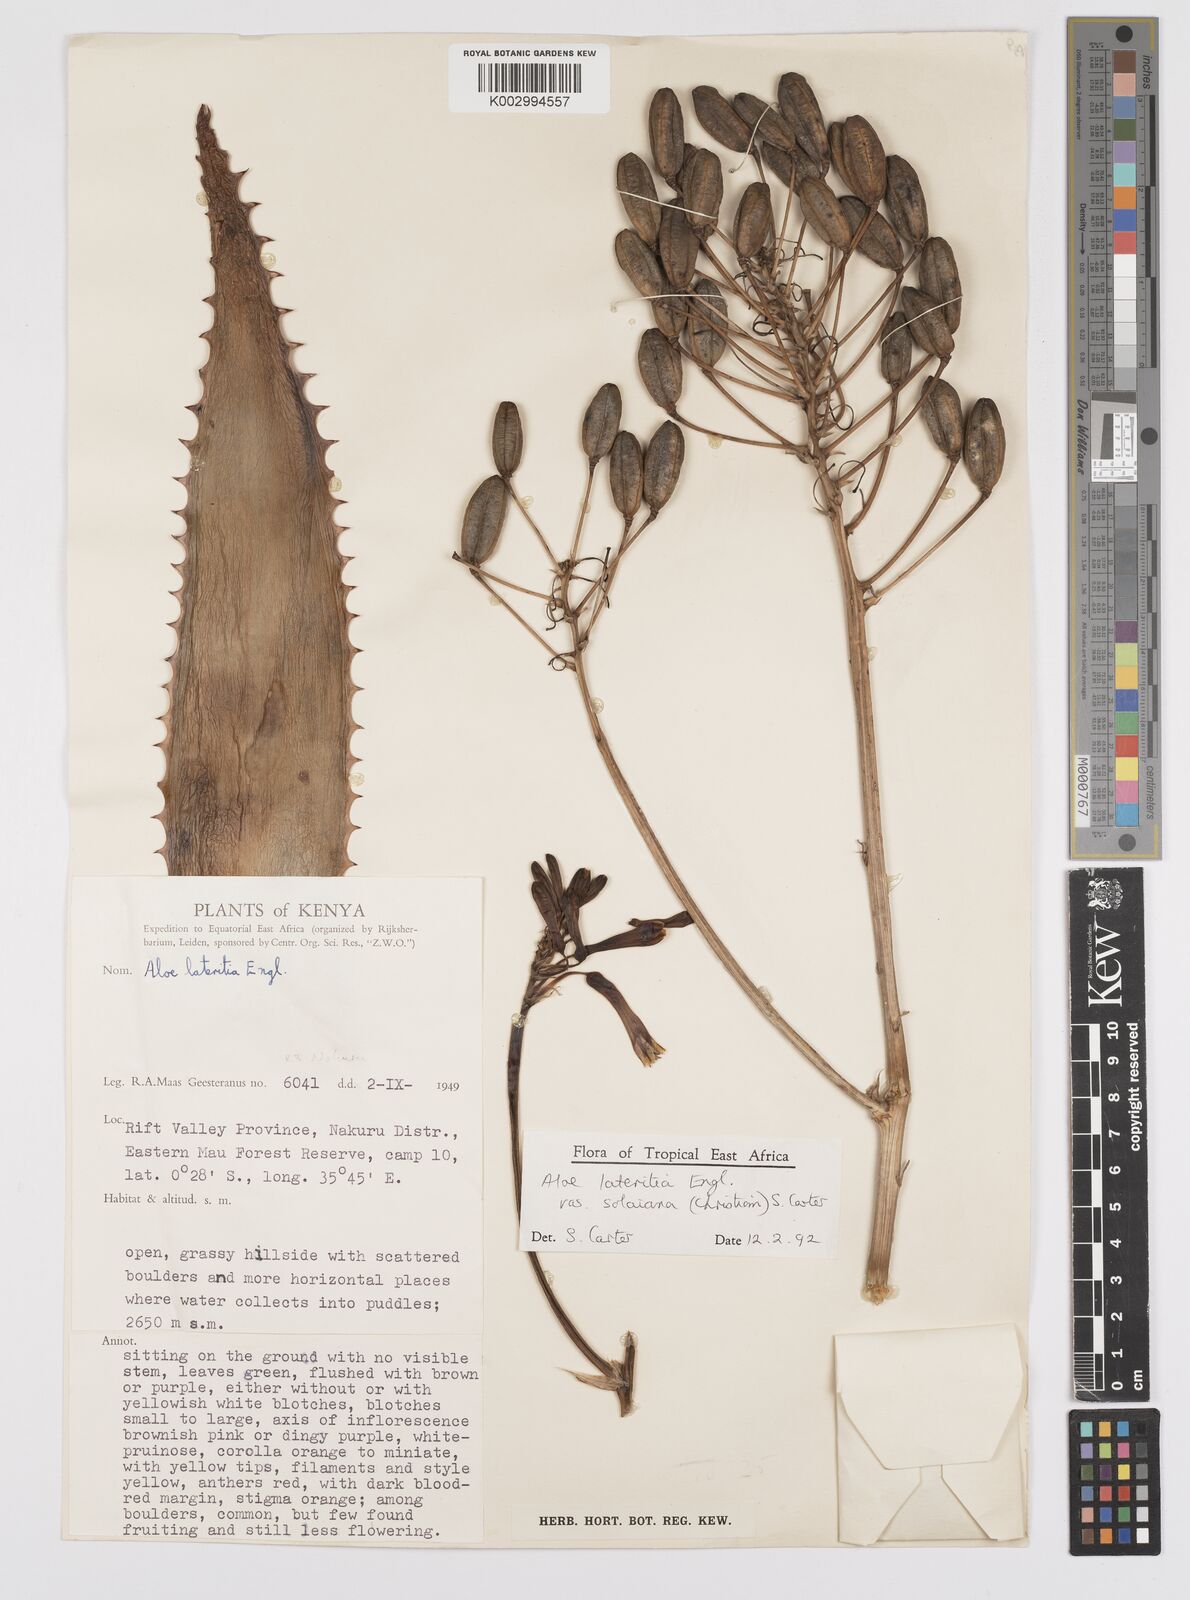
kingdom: Plantae
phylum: Tracheophyta
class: Liliopsida
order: Asparagales
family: Asphodelaceae
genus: Aloe
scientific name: Aloe lateritia
